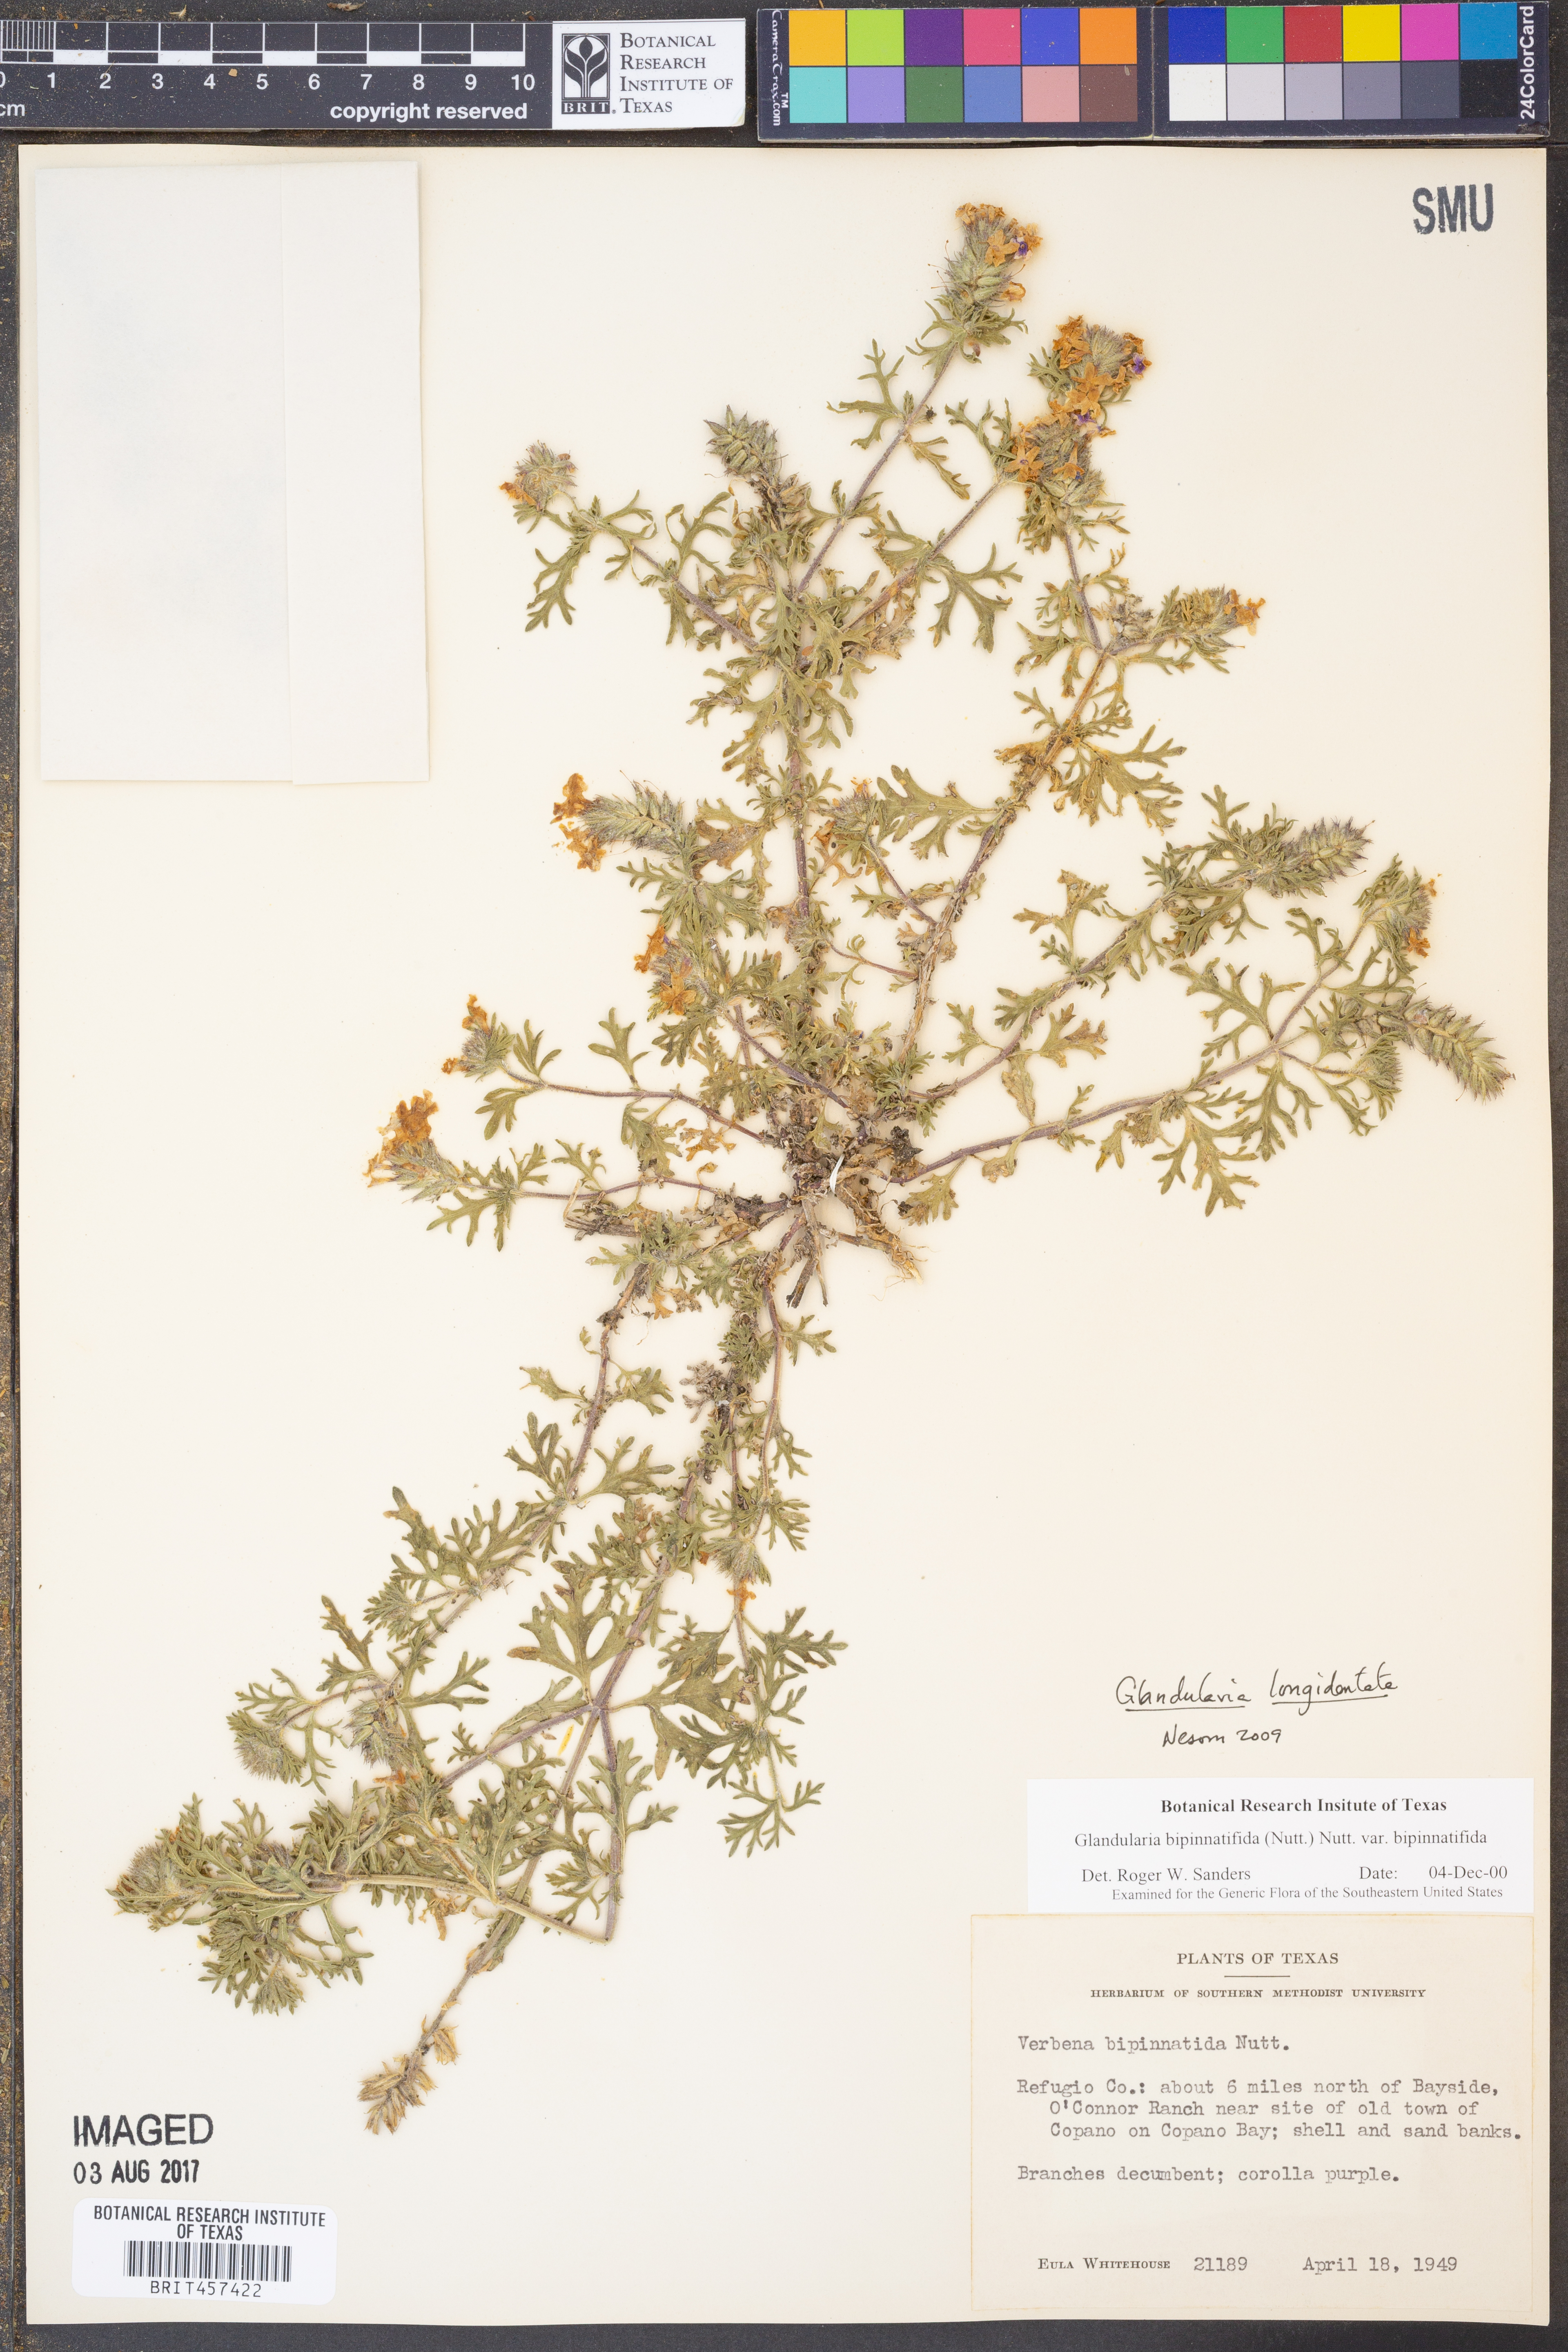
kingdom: Plantae
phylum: Tracheophyta
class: Magnoliopsida
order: Lamiales
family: Verbenaceae
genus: Verbena
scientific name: Verbena polyantha
